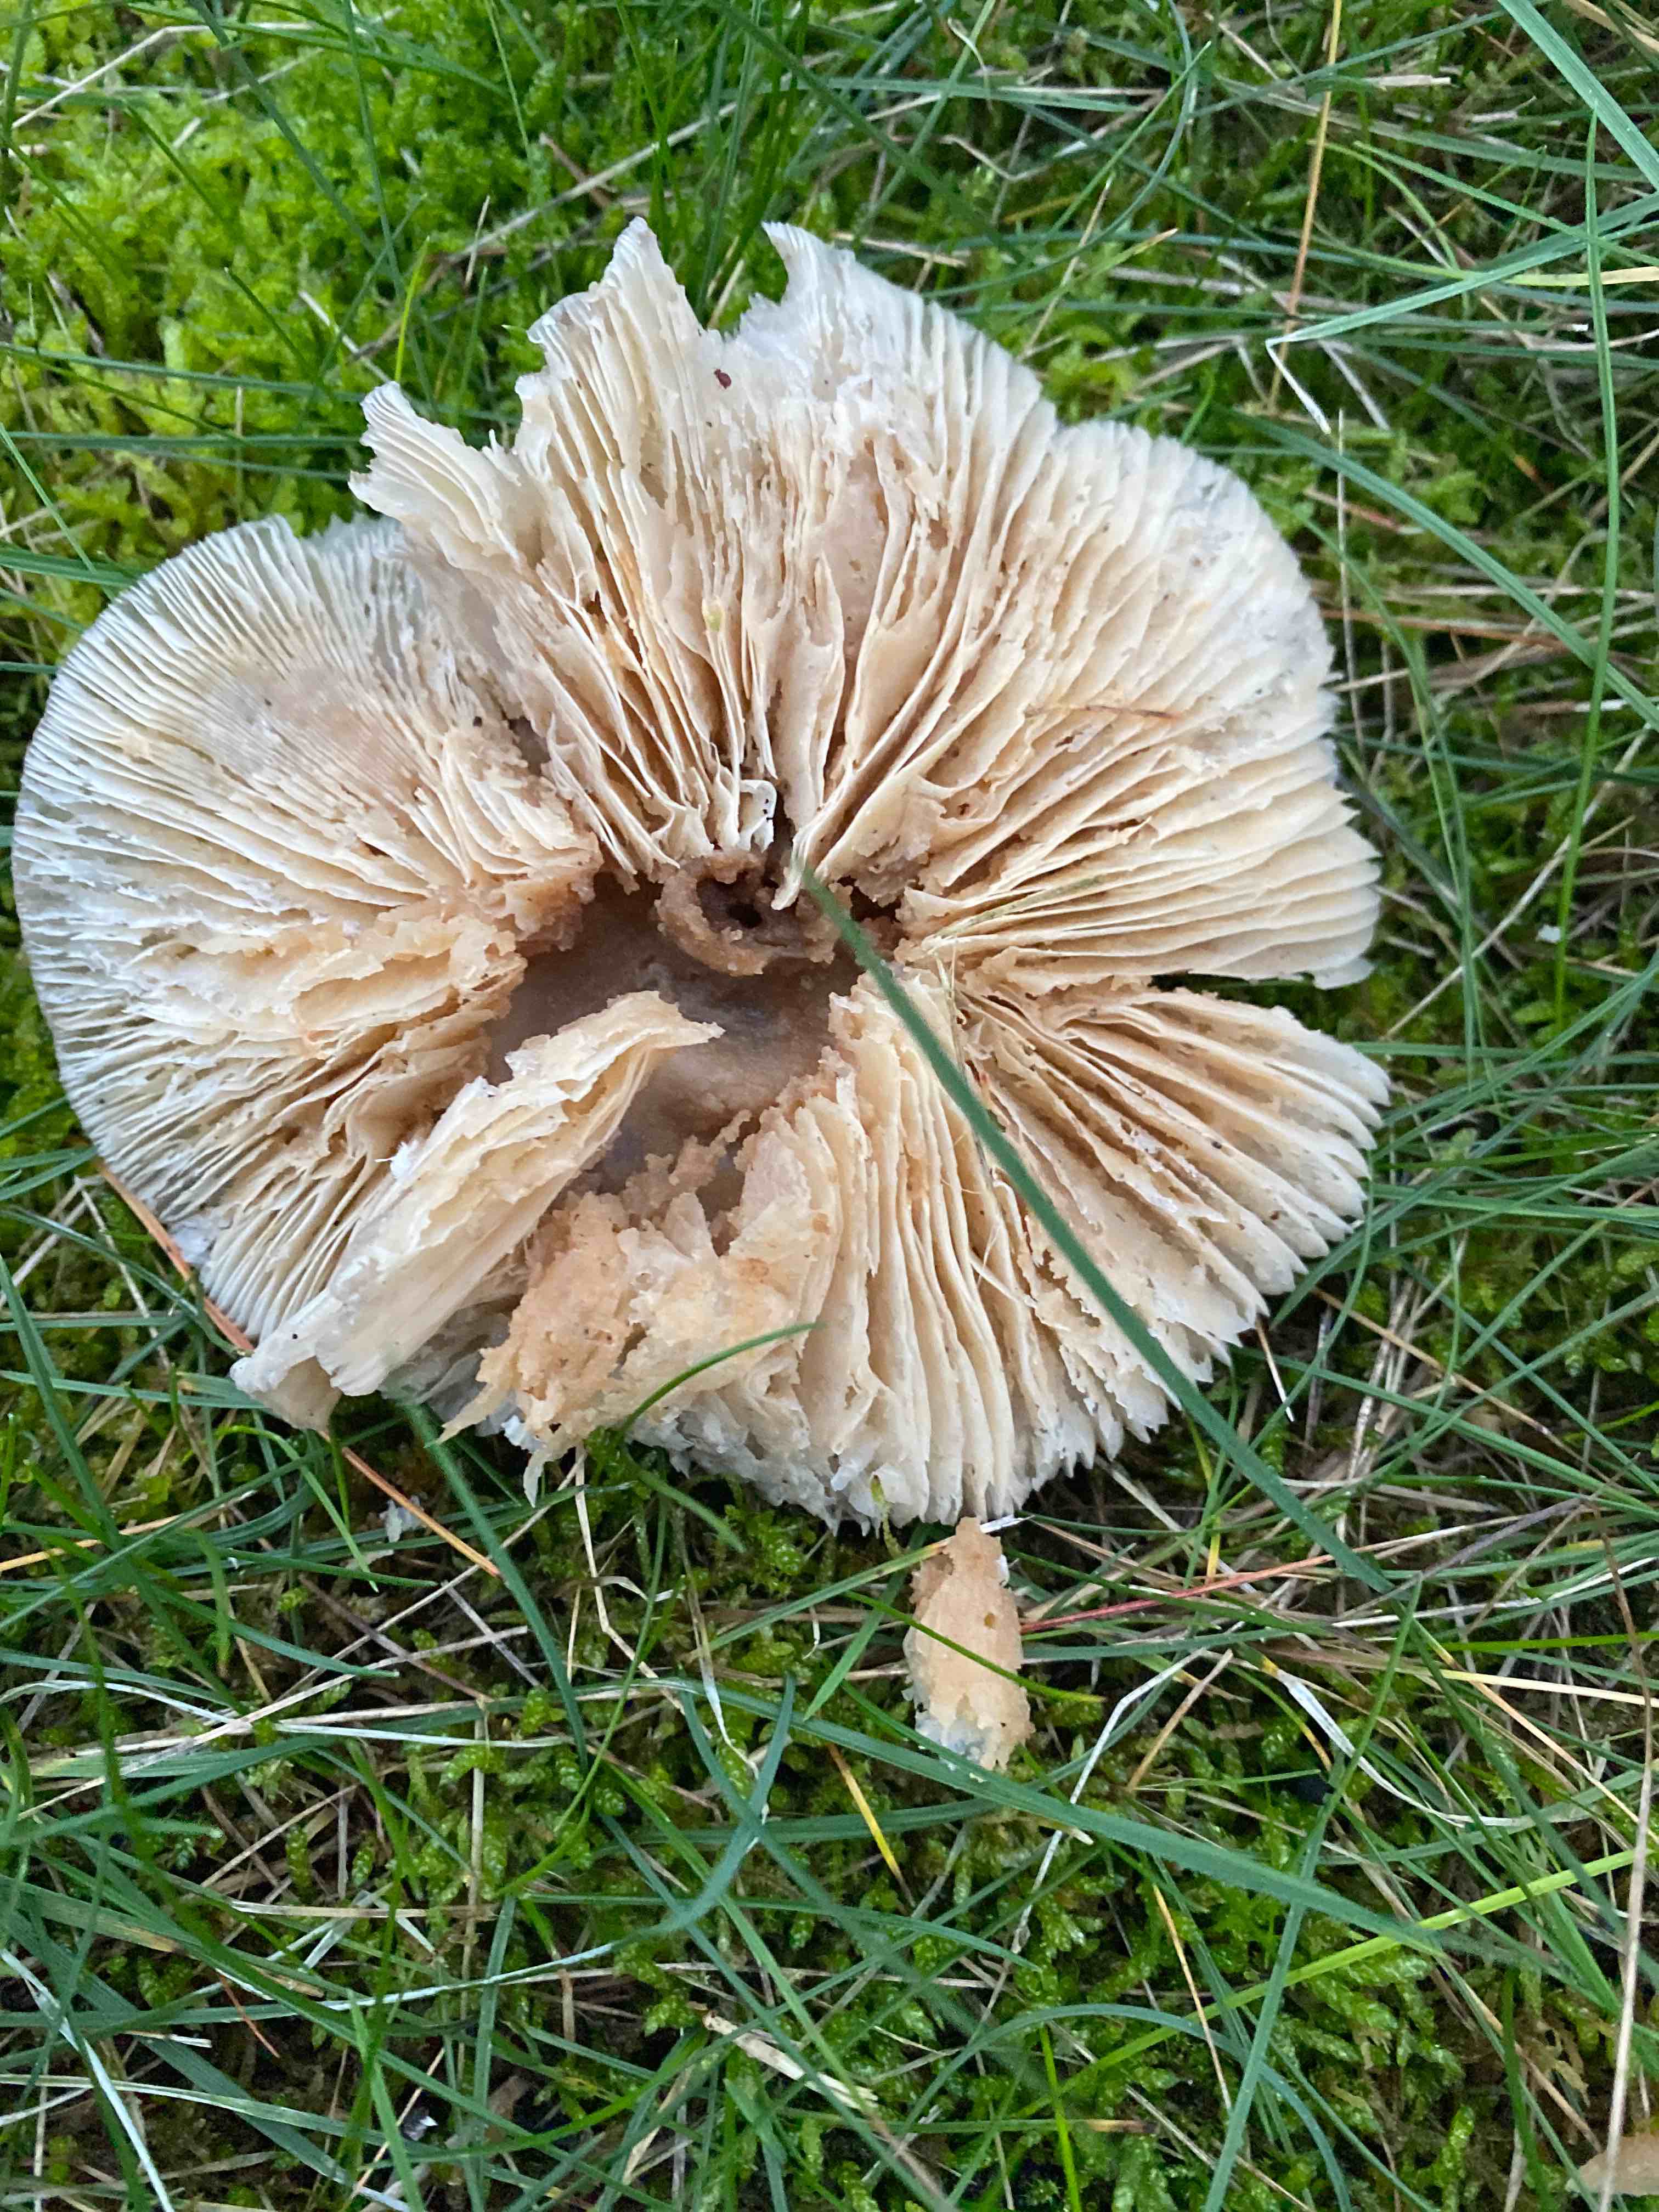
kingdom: Fungi
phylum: Basidiomycota
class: Agaricomycetes
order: Agaricales
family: Tricholomataceae
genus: Clitocybe
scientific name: Clitocybe nebularis
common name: tåge-tragthat
